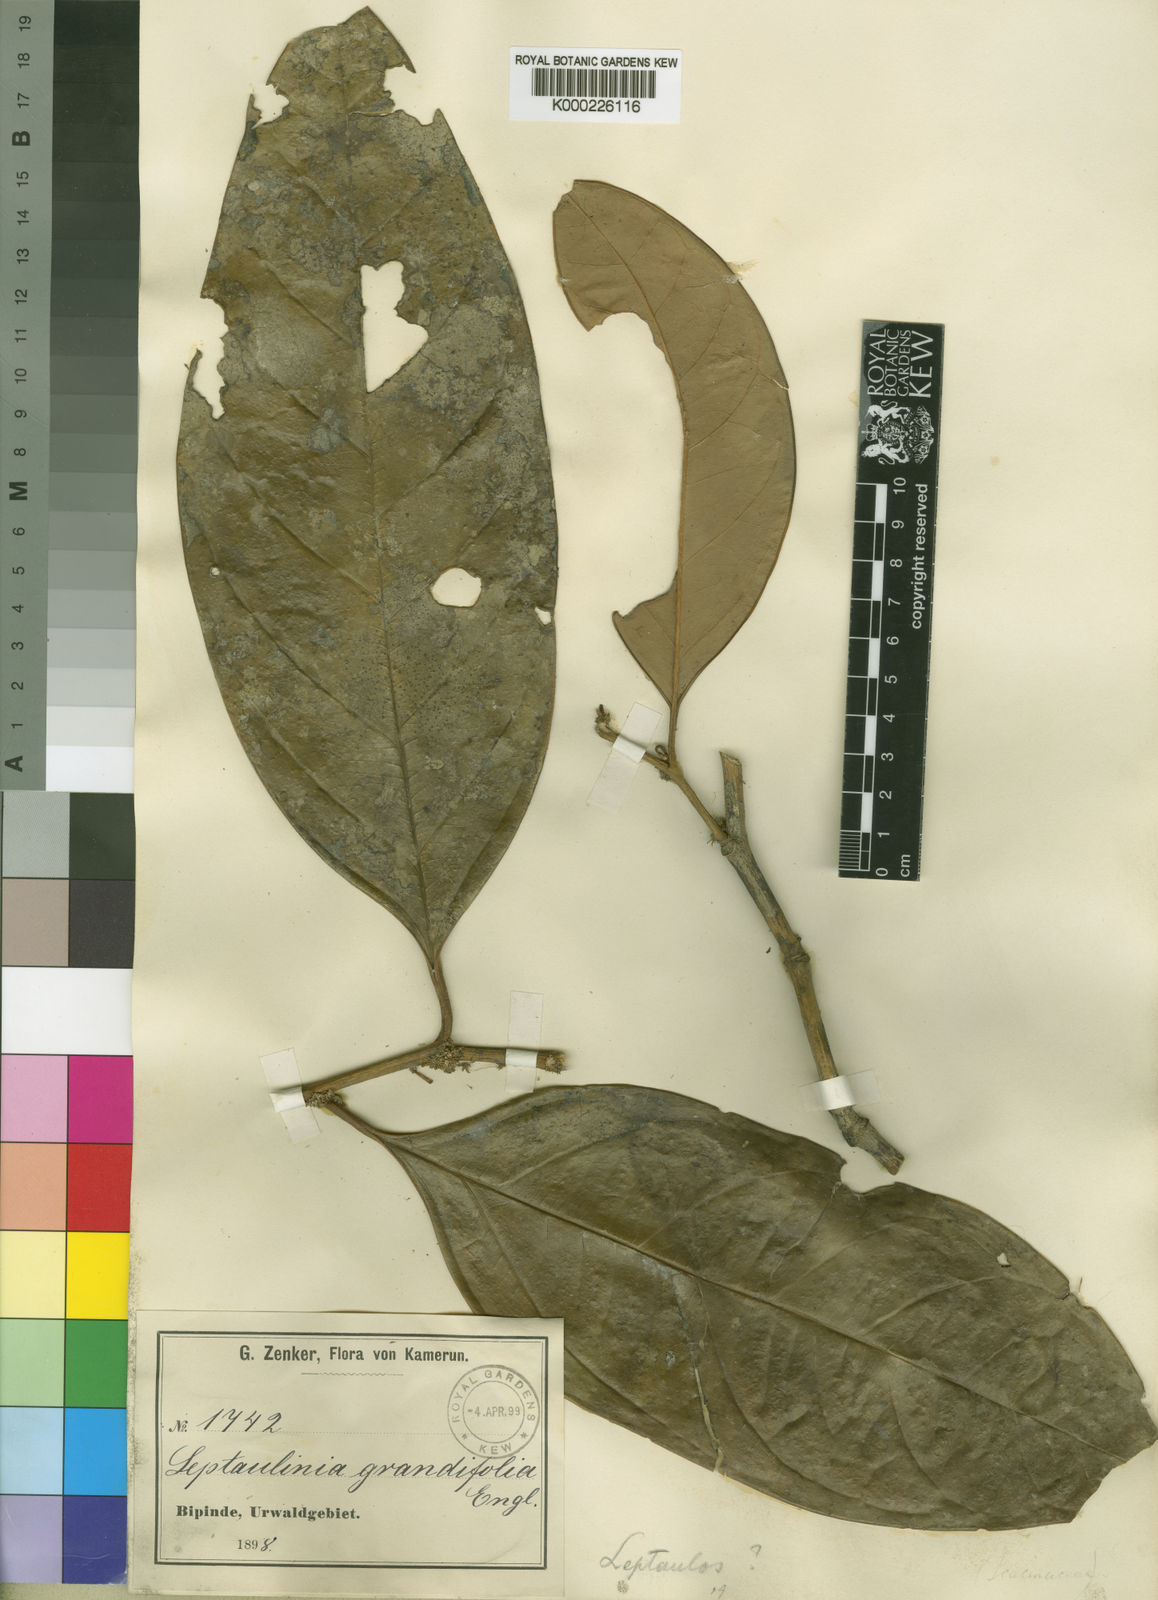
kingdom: Plantae
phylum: Tracheophyta
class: Magnoliopsida
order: Cardiopteridales
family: Cardiopteridaceae
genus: Leptaulus
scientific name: Leptaulus grandifolius
